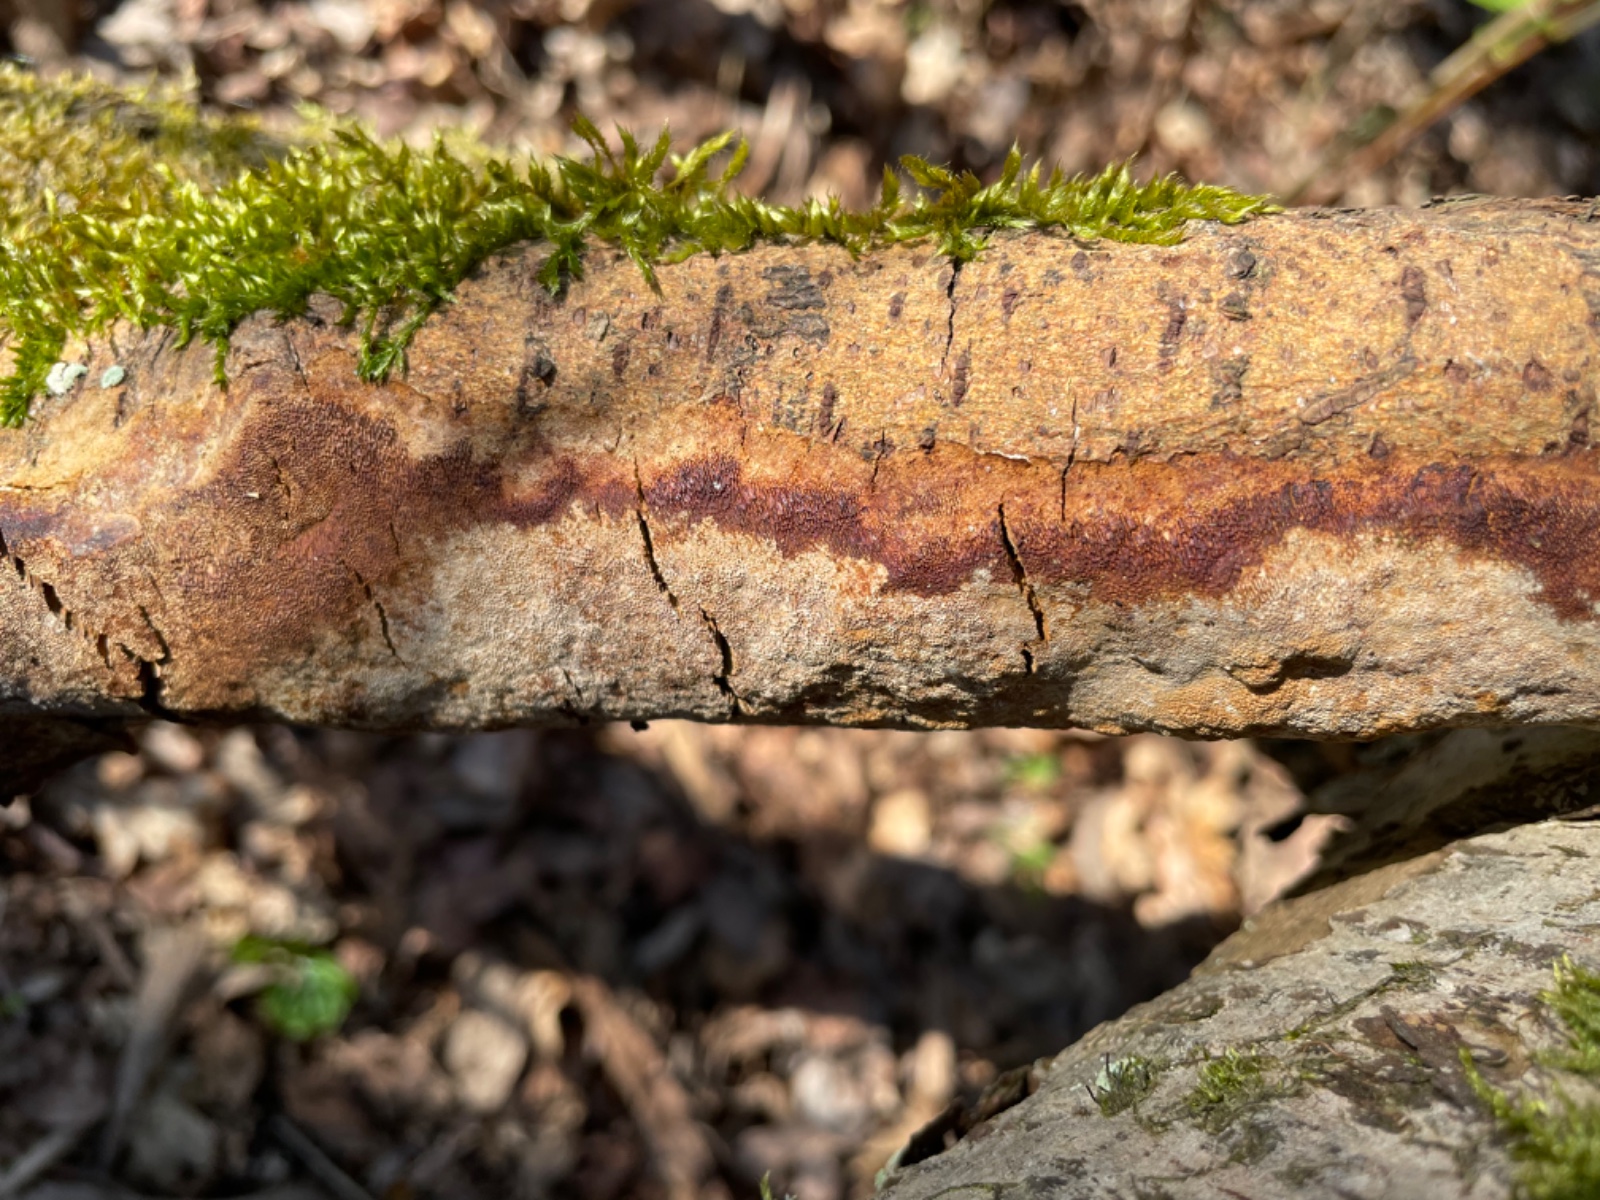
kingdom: Fungi
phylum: Basidiomycota
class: Agaricomycetes
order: Hymenochaetales
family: Hymenochaetaceae
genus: Fomitiporia
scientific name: Fomitiporia punctata
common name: pude-ildporesvamp
